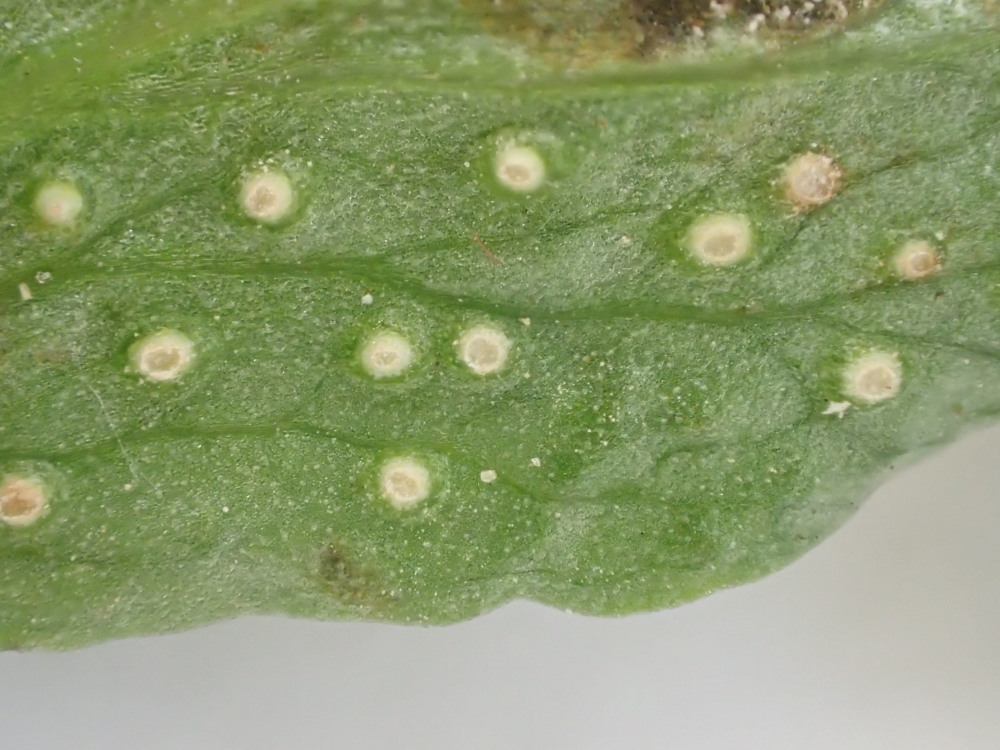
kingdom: Fungi
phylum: Basidiomycota
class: Pucciniomycetes
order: Pucciniales
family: Ochropsoraceae
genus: Ochropsora
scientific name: Ochropsora ariae
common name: anemone-okkerpletrust
